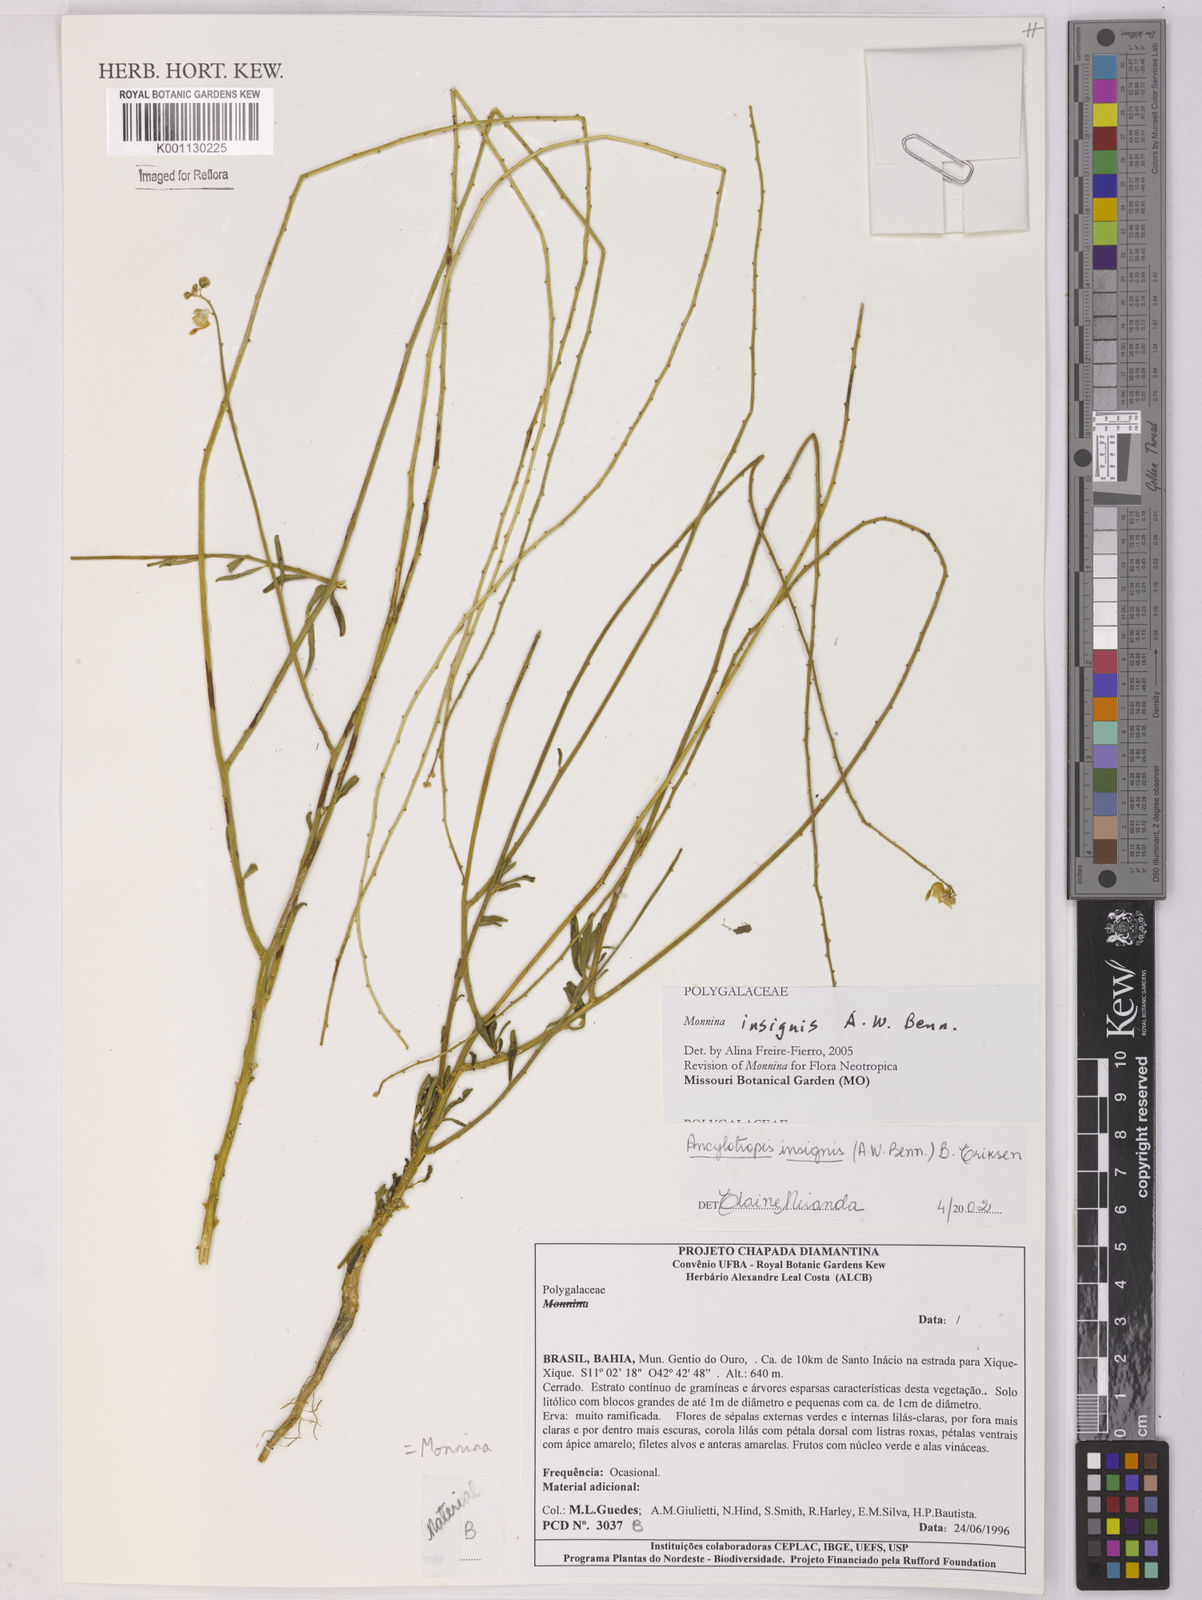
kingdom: Plantae
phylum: Tracheophyta
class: Magnoliopsida
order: Fabales
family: Polygalaceae
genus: Ancylotropis
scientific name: Ancylotropis insignis
